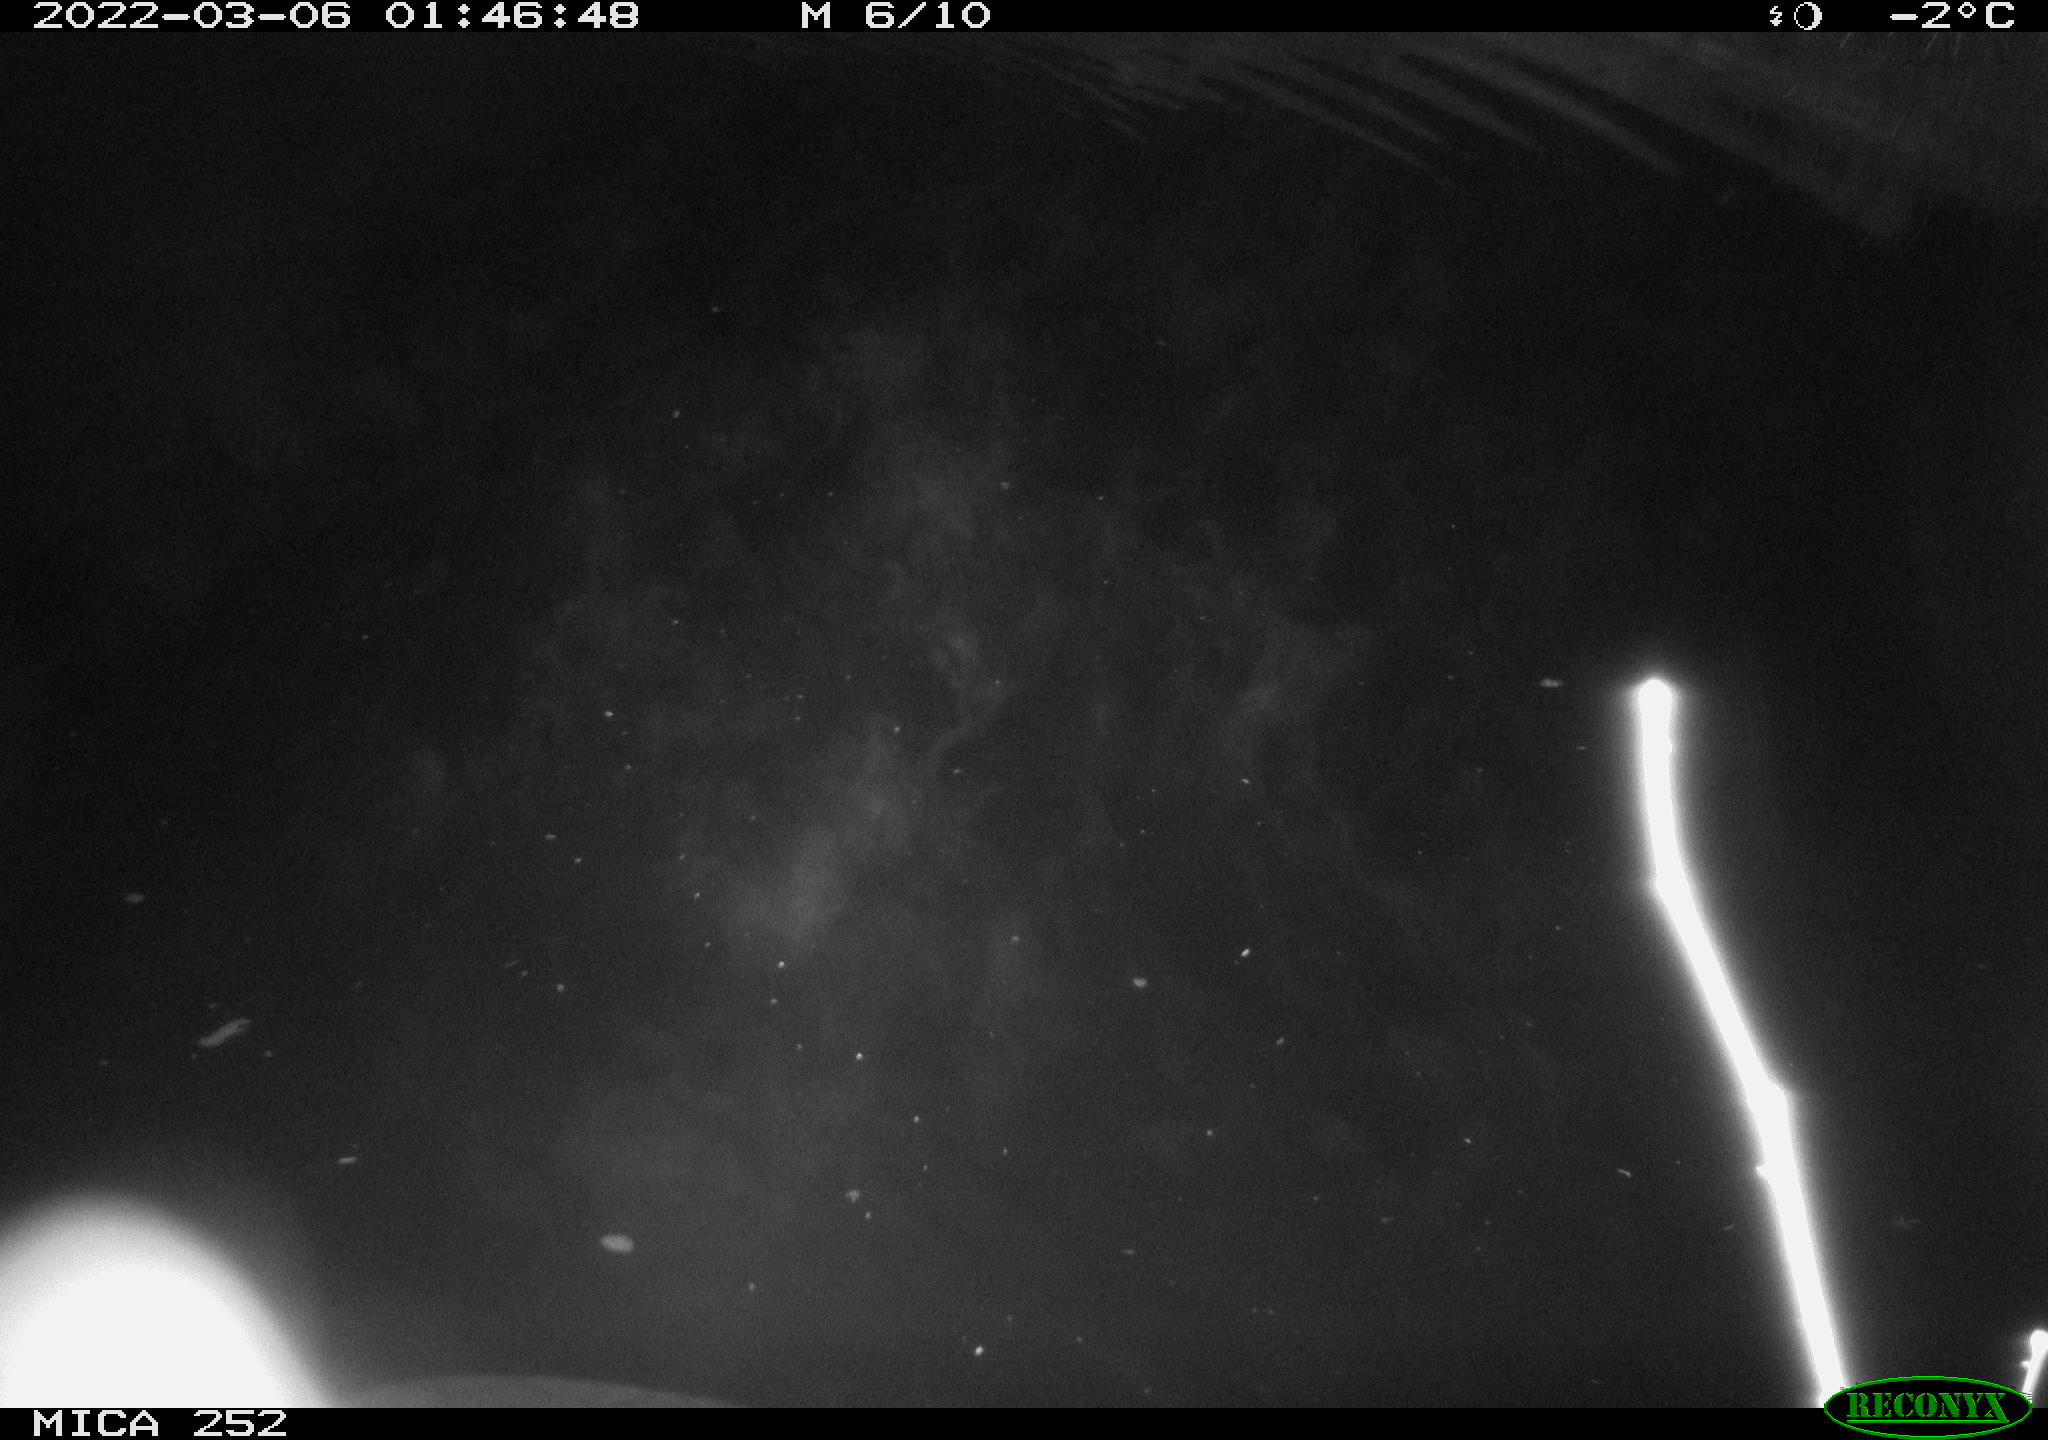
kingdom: Animalia
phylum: Chordata
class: Mammalia
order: Rodentia
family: Castoridae
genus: Castor
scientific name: Castor fiber
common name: Eurasian beaver
